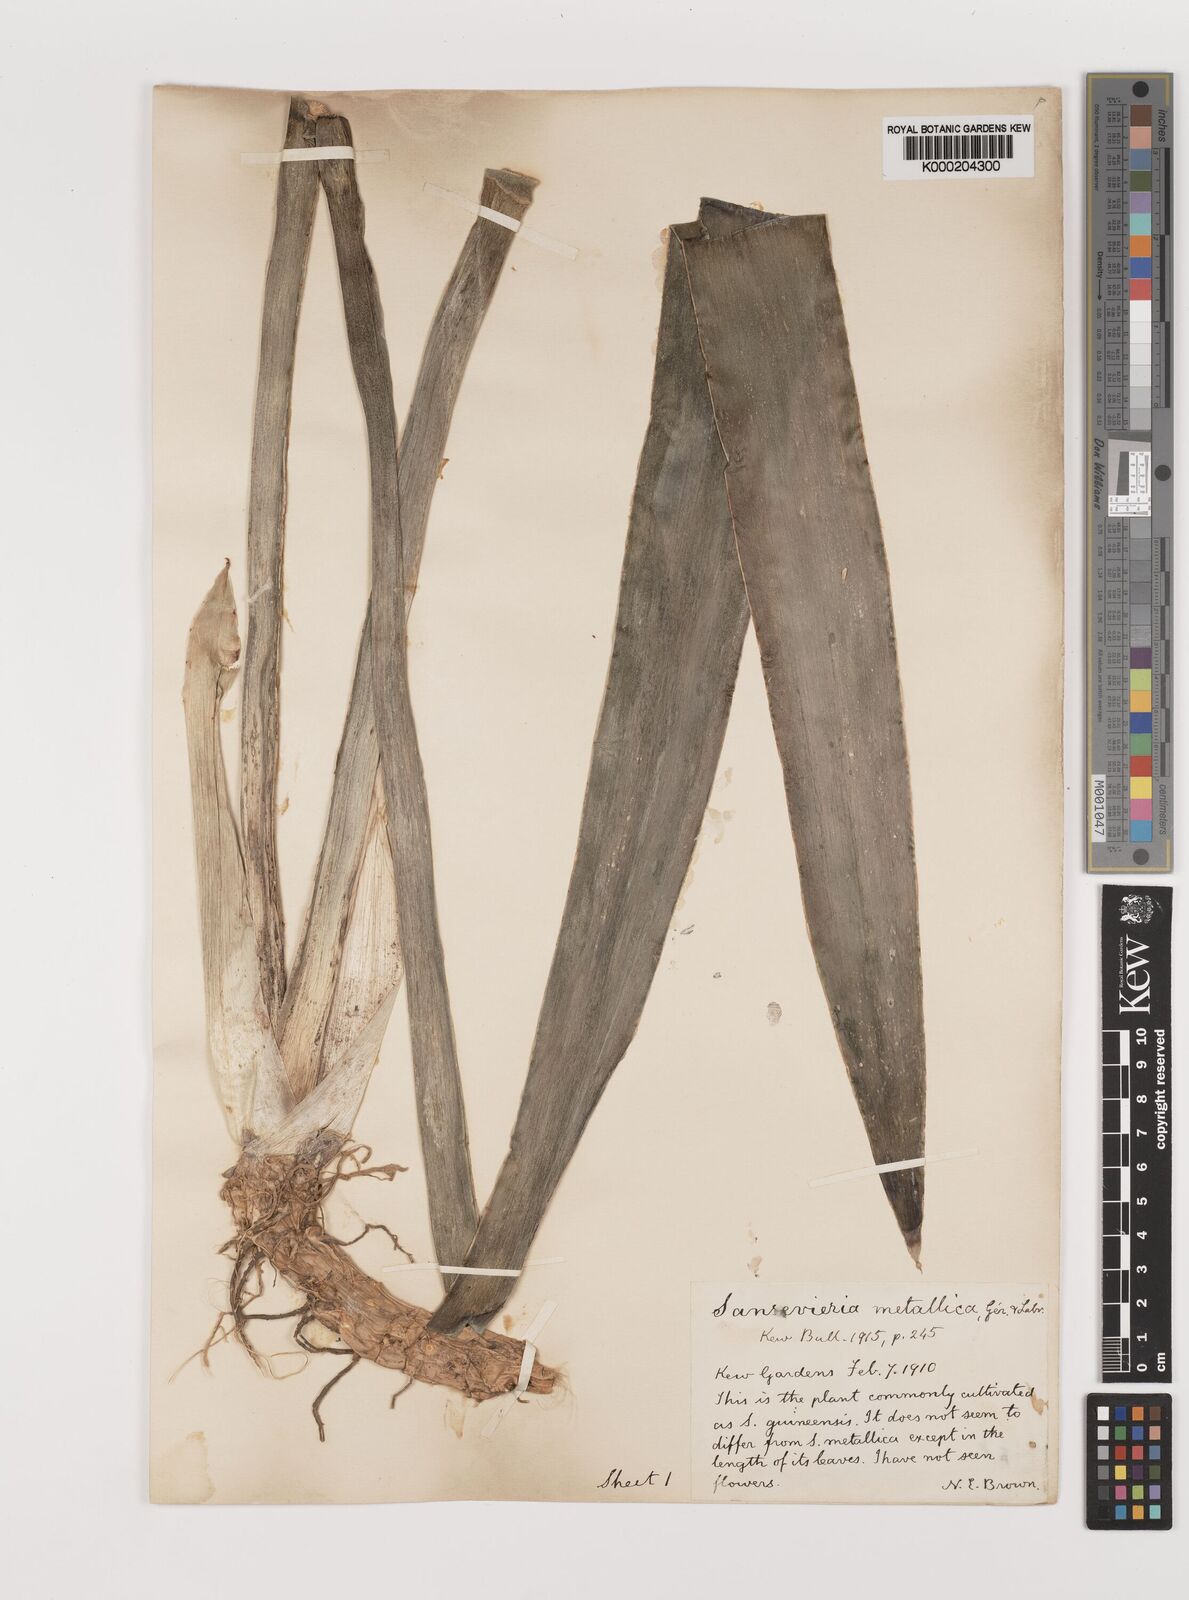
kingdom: Plantae
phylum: Tracheophyta
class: Liliopsida
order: Asparagales
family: Asparagaceae
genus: Dracaena
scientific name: Dracaena serpenta
